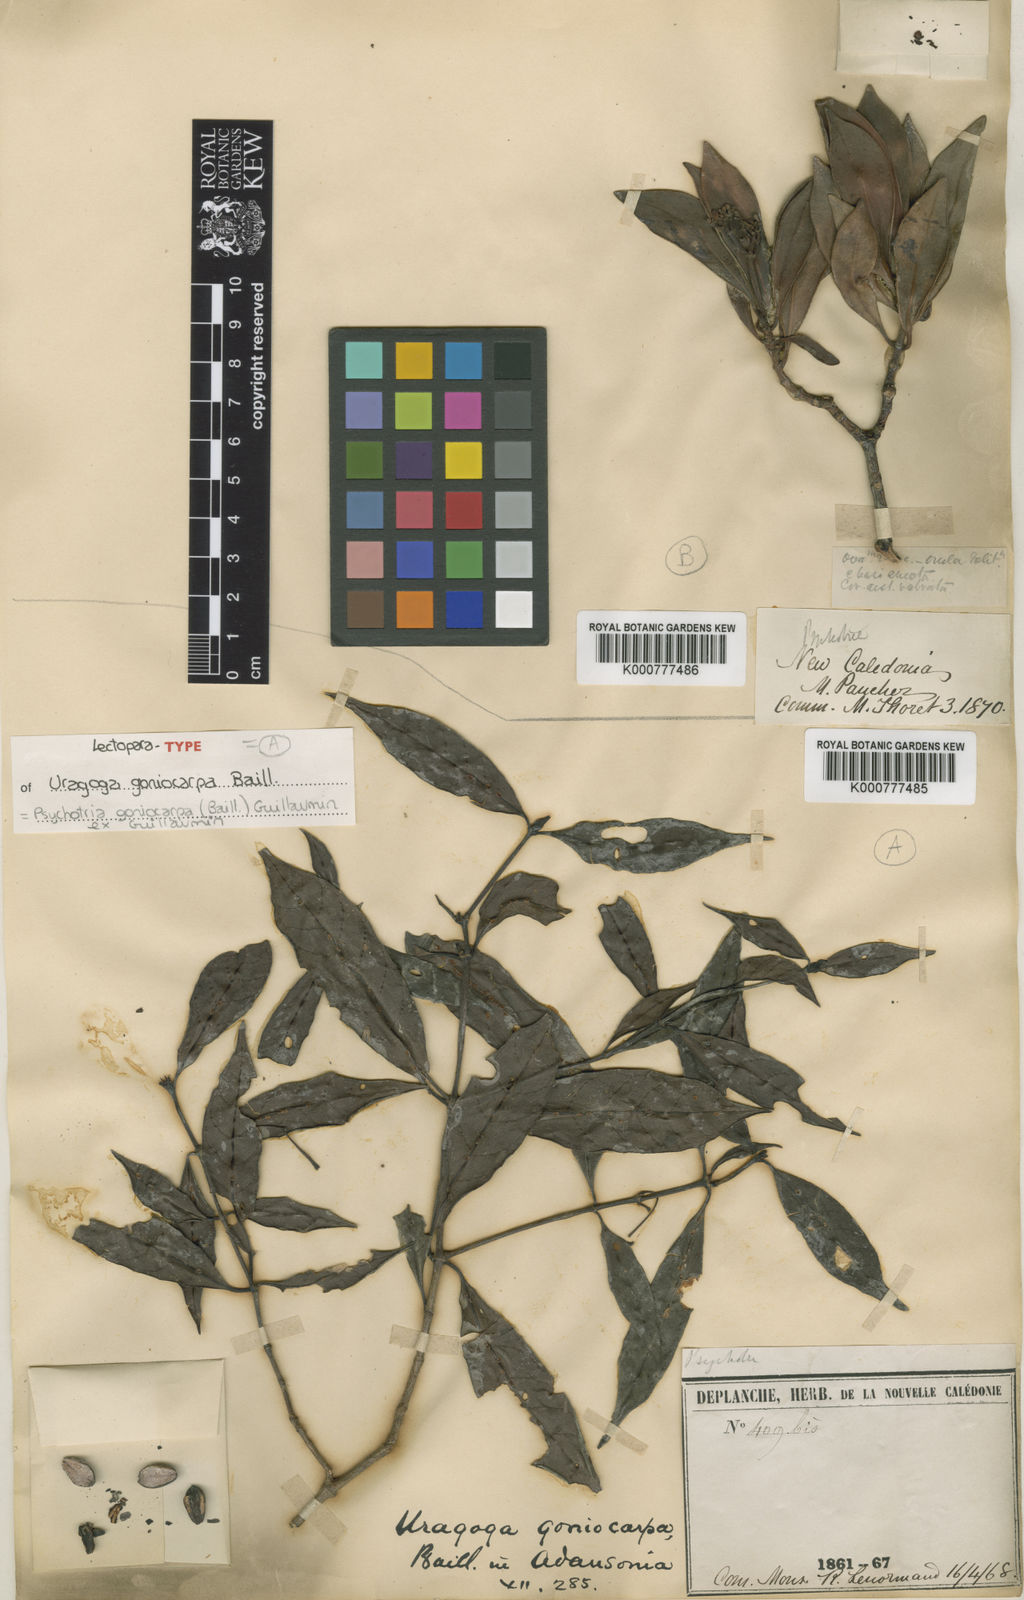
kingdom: Plantae
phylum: Tracheophyta
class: Magnoliopsida
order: Gentianales
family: Rubiaceae
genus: Psychotria
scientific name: Psychotria goniocarpa
